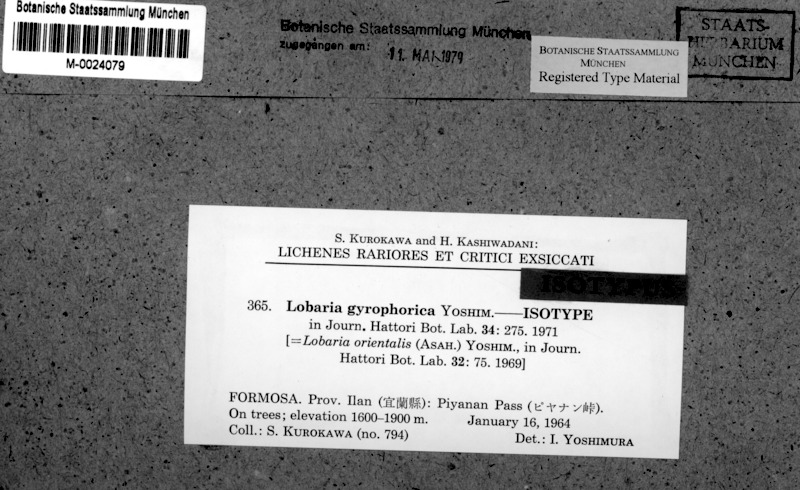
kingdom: Fungi
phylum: Ascomycota
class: Lecanoromycetes
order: Peltigerales
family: Lobariaceae
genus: Lobaria
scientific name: Lobaria gyrophorica
